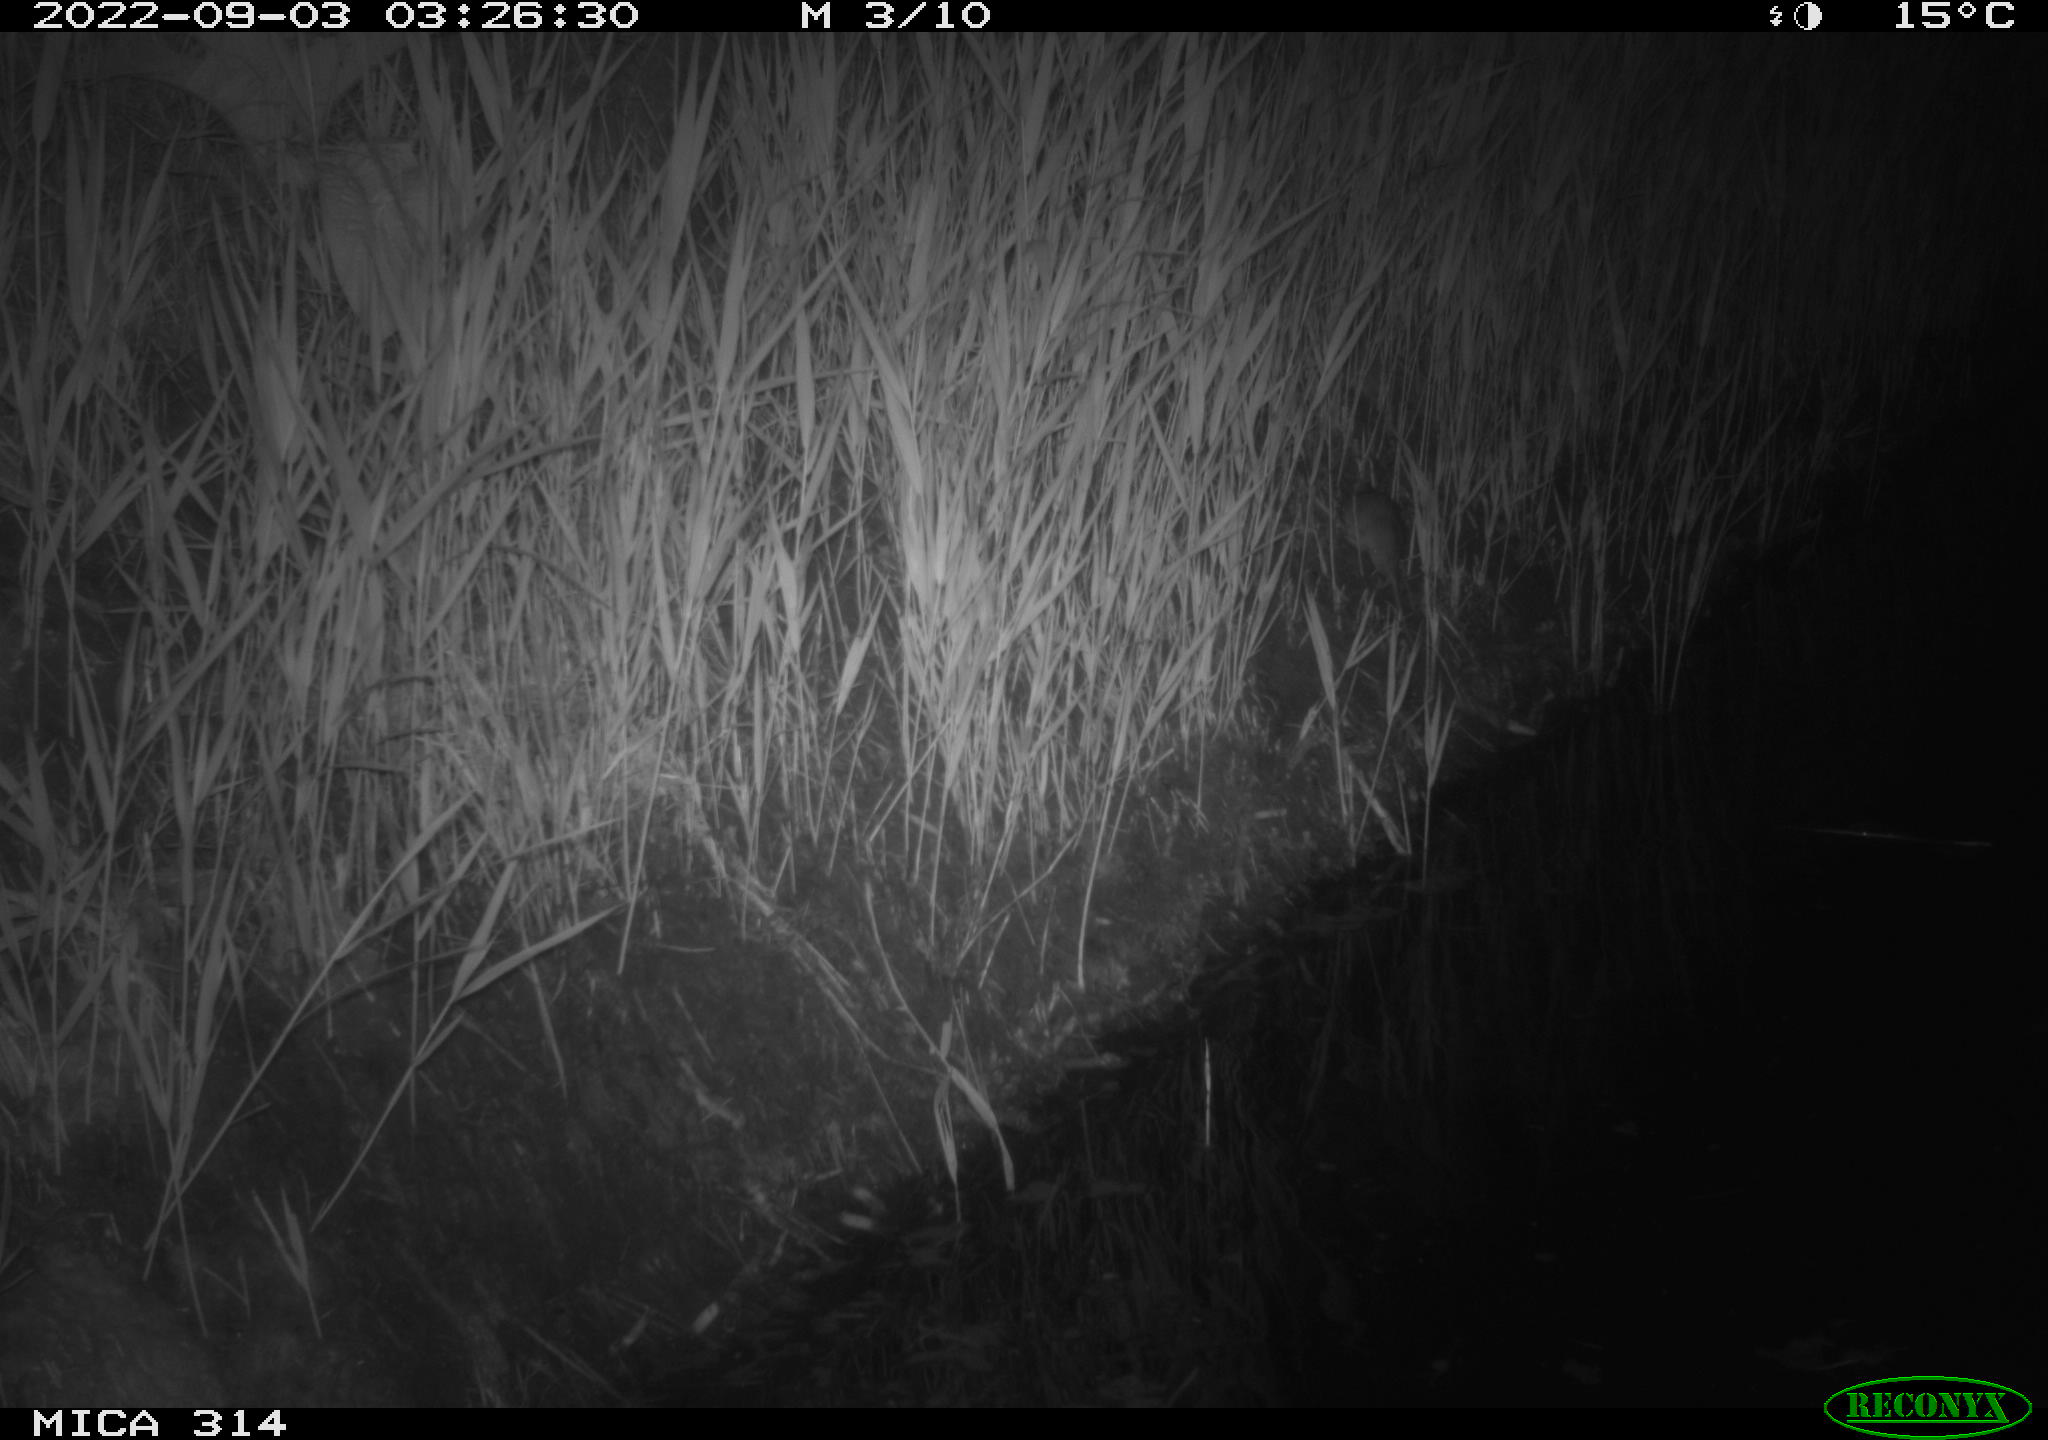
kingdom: Animalia
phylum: Chordata
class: Mammalia
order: Rodentia
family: Muridae
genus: Rattus
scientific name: Rattus norvegicus
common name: Brown rat
